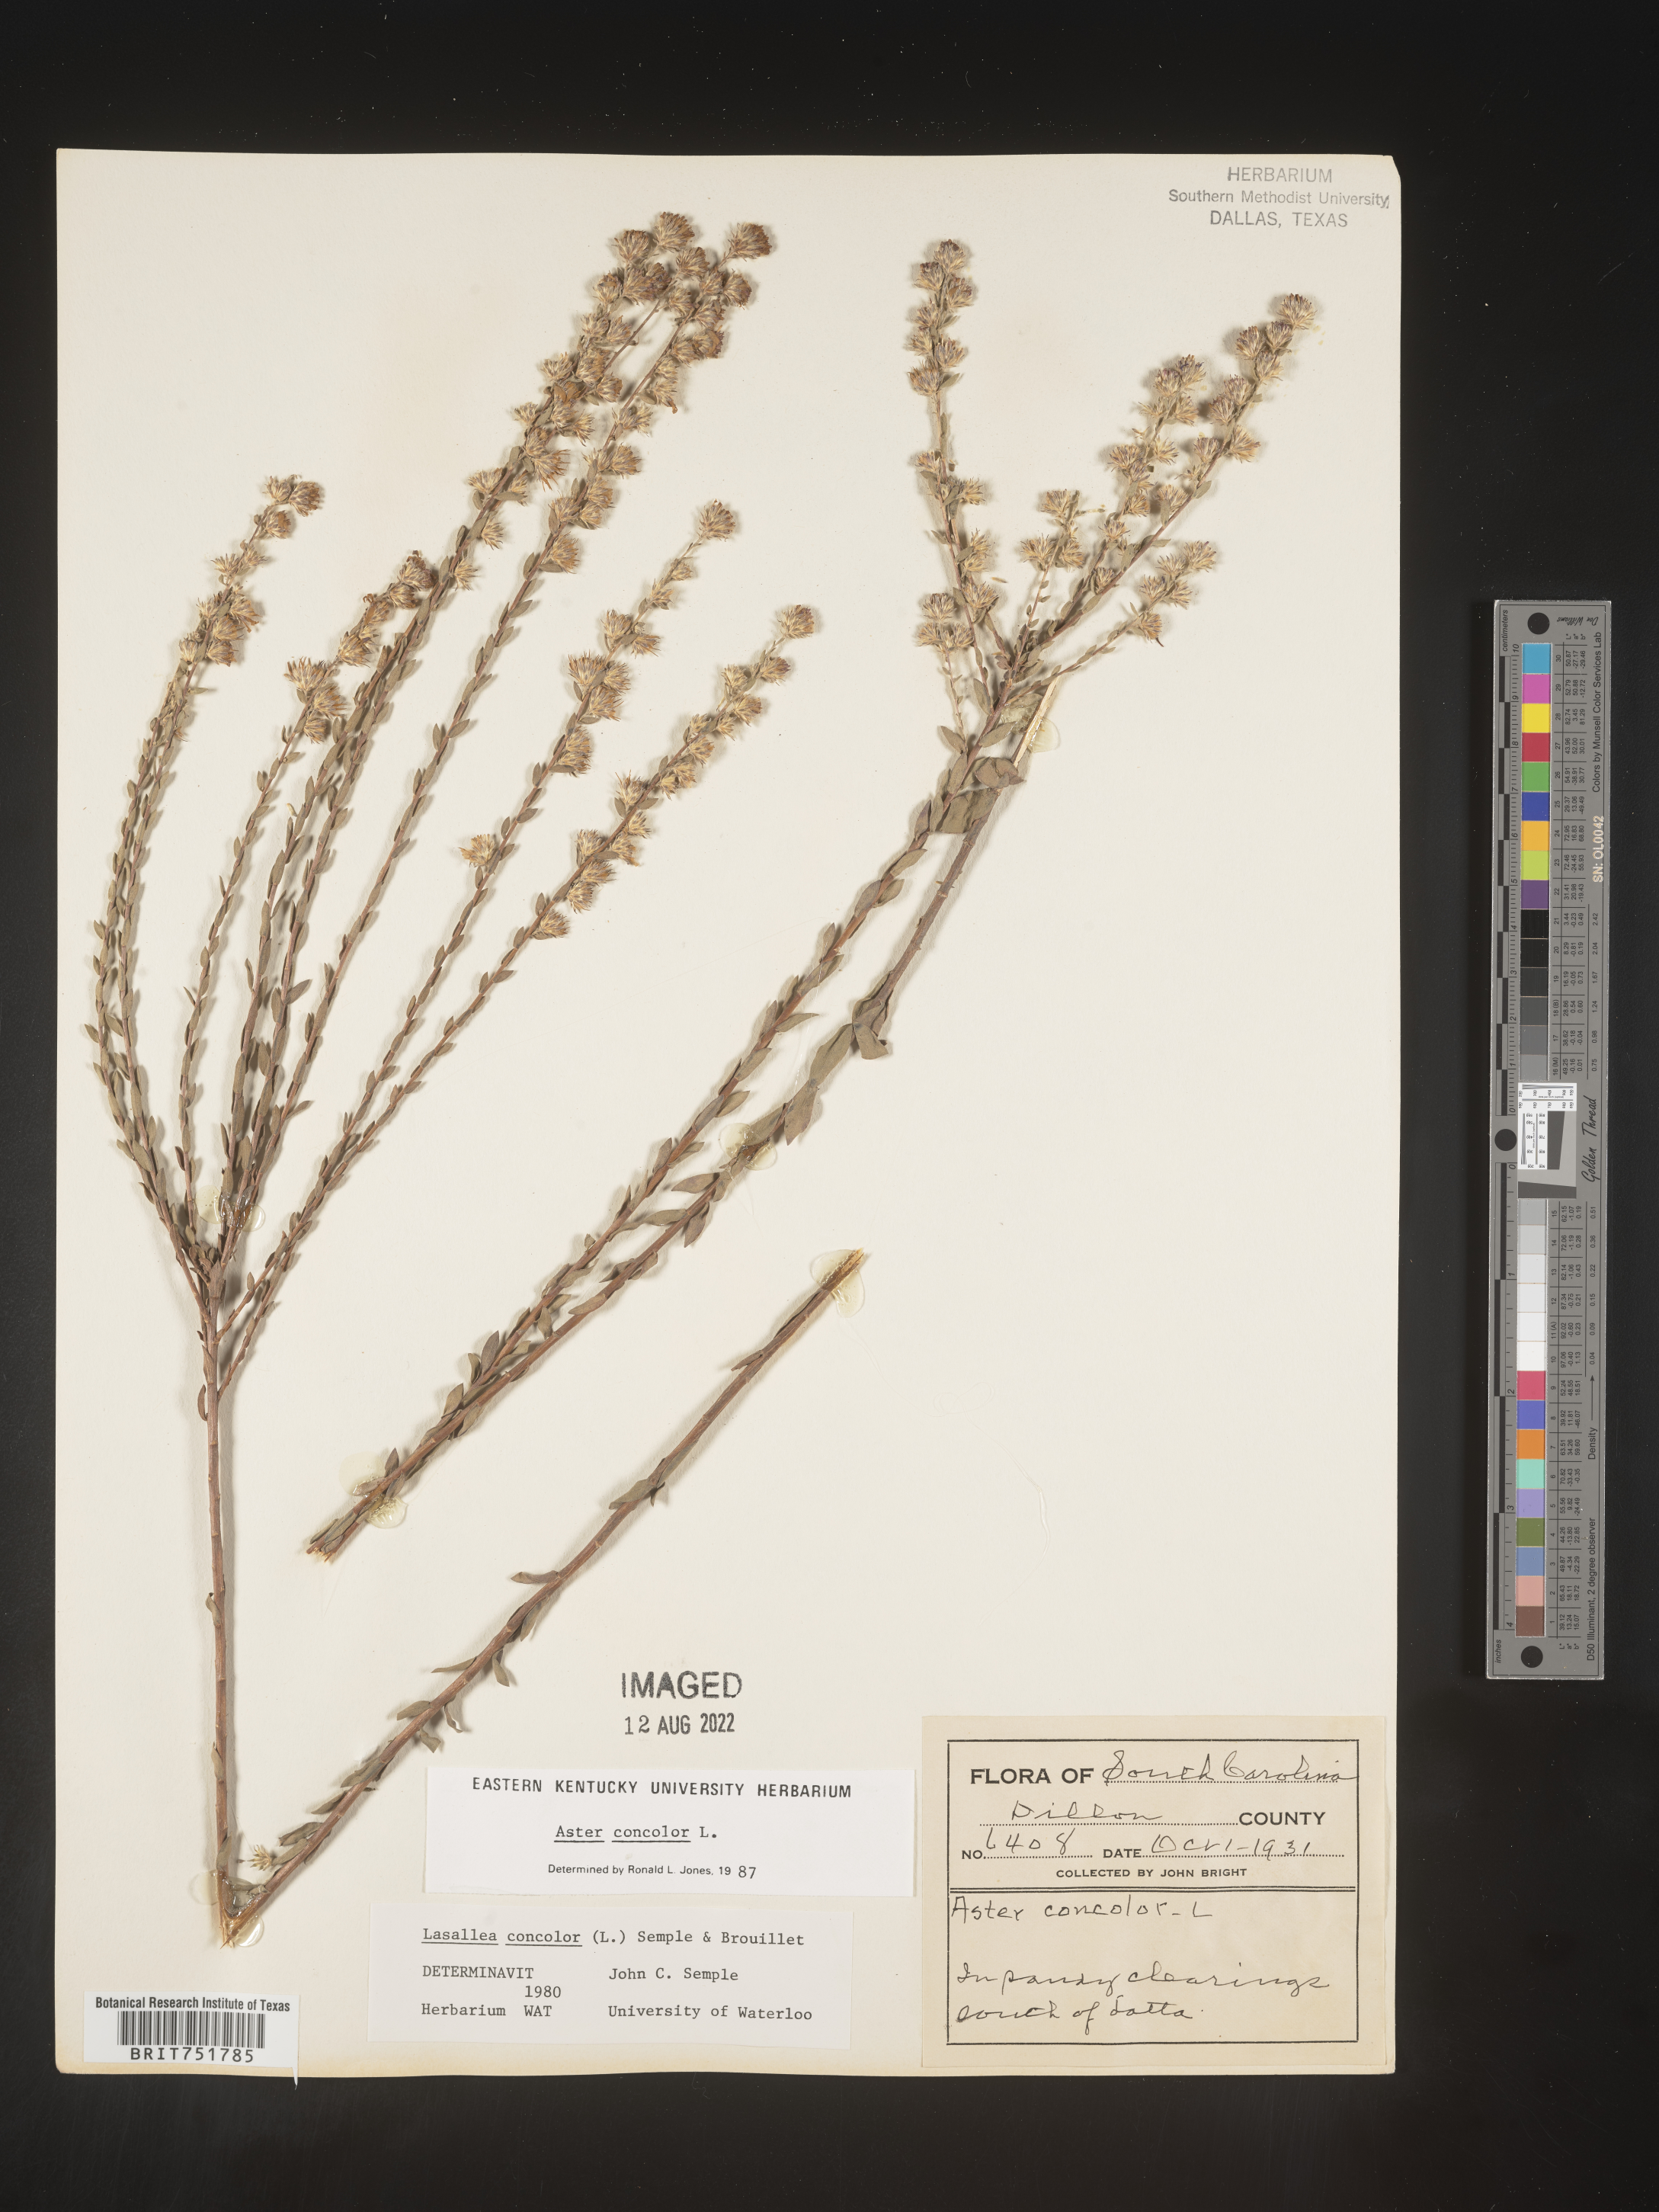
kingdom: Plantae
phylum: Tracheophyta
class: Magnoliopsida
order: Asterales
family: Asteraceae
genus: Symphyotrichum
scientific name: Symphyotrichum concolor
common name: Eastern silver aster
